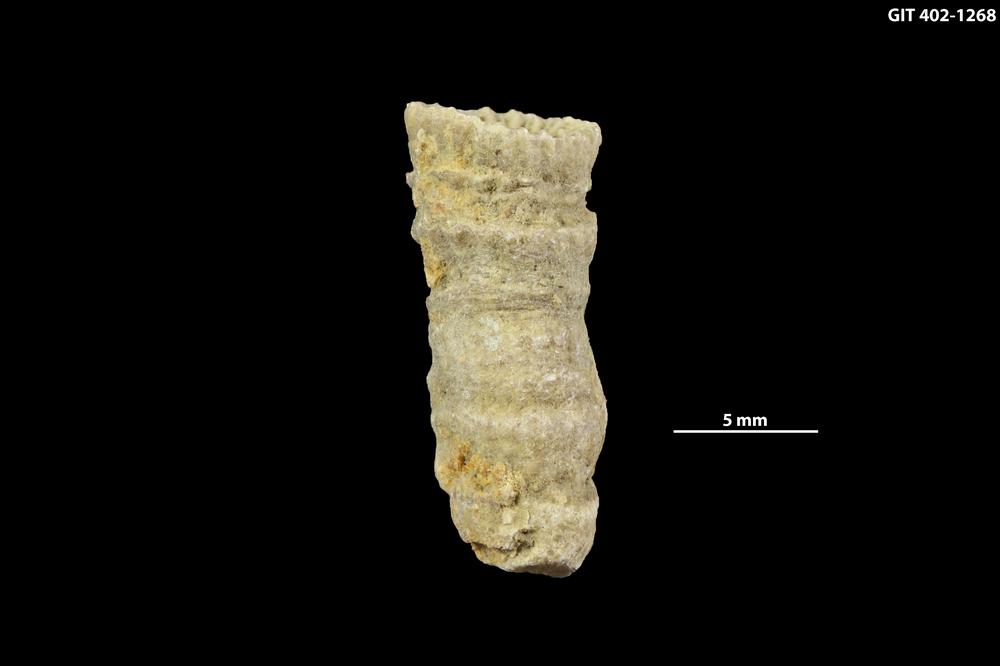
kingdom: Animalia
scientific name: Animalia
